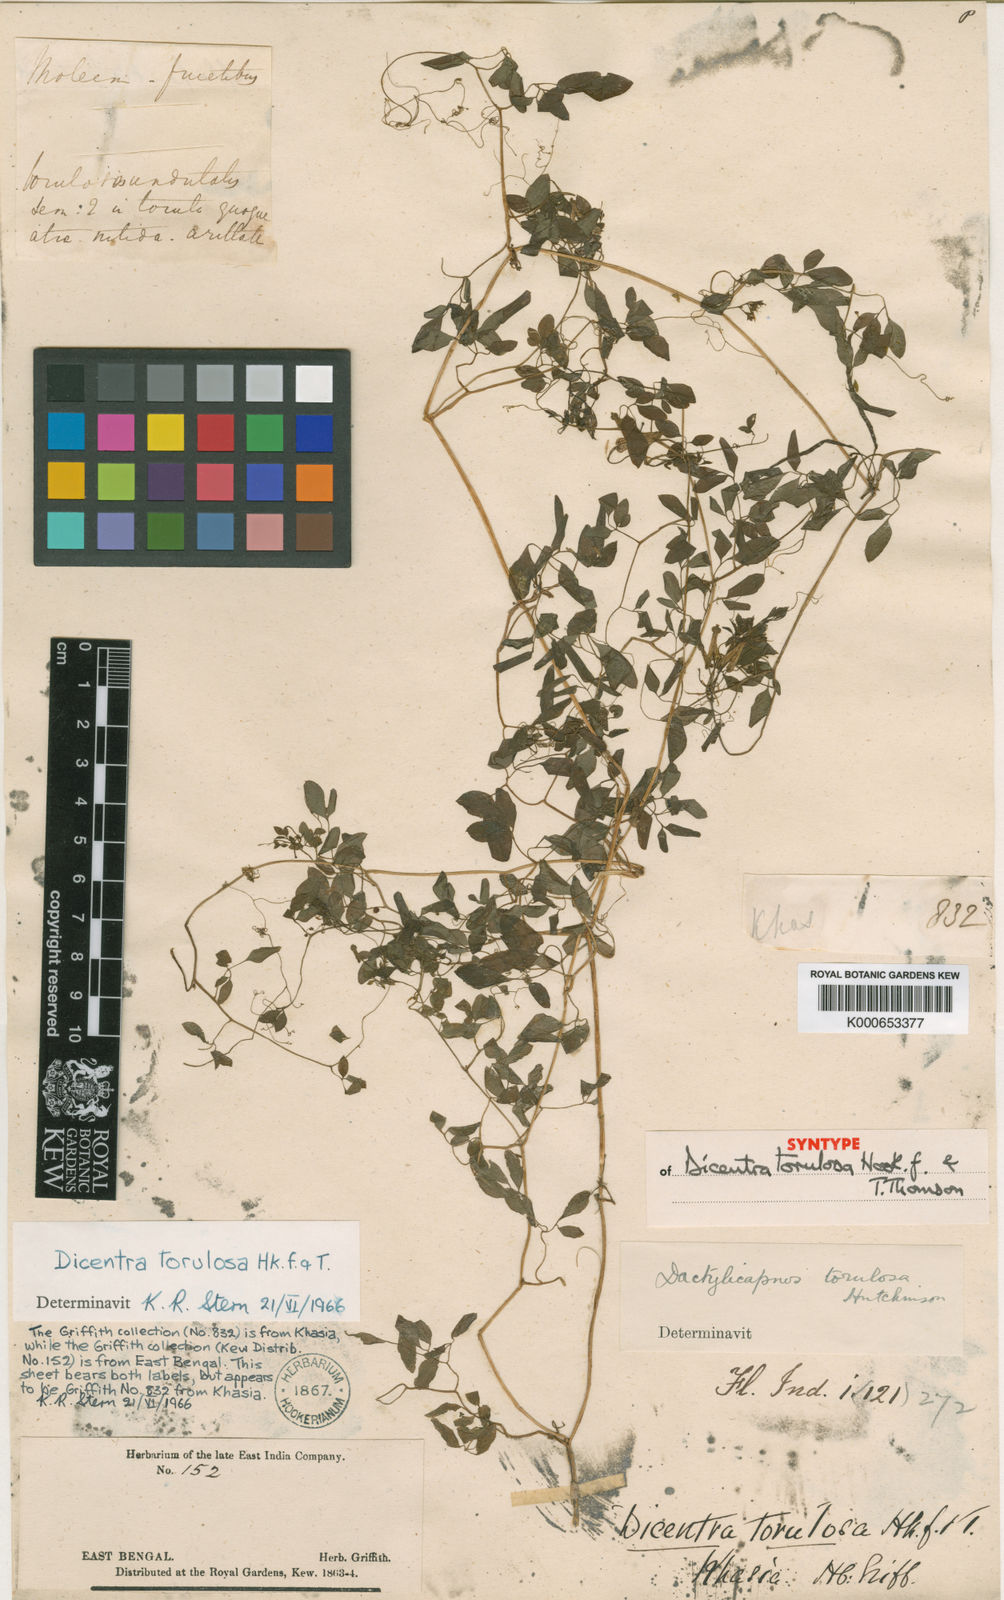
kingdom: Plantae
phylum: Tracheophyta
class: Magnoliopsida
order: Ranunculales
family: Papaveraceae
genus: Dactylicapnos
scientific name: Dactylicapnos torulosa
